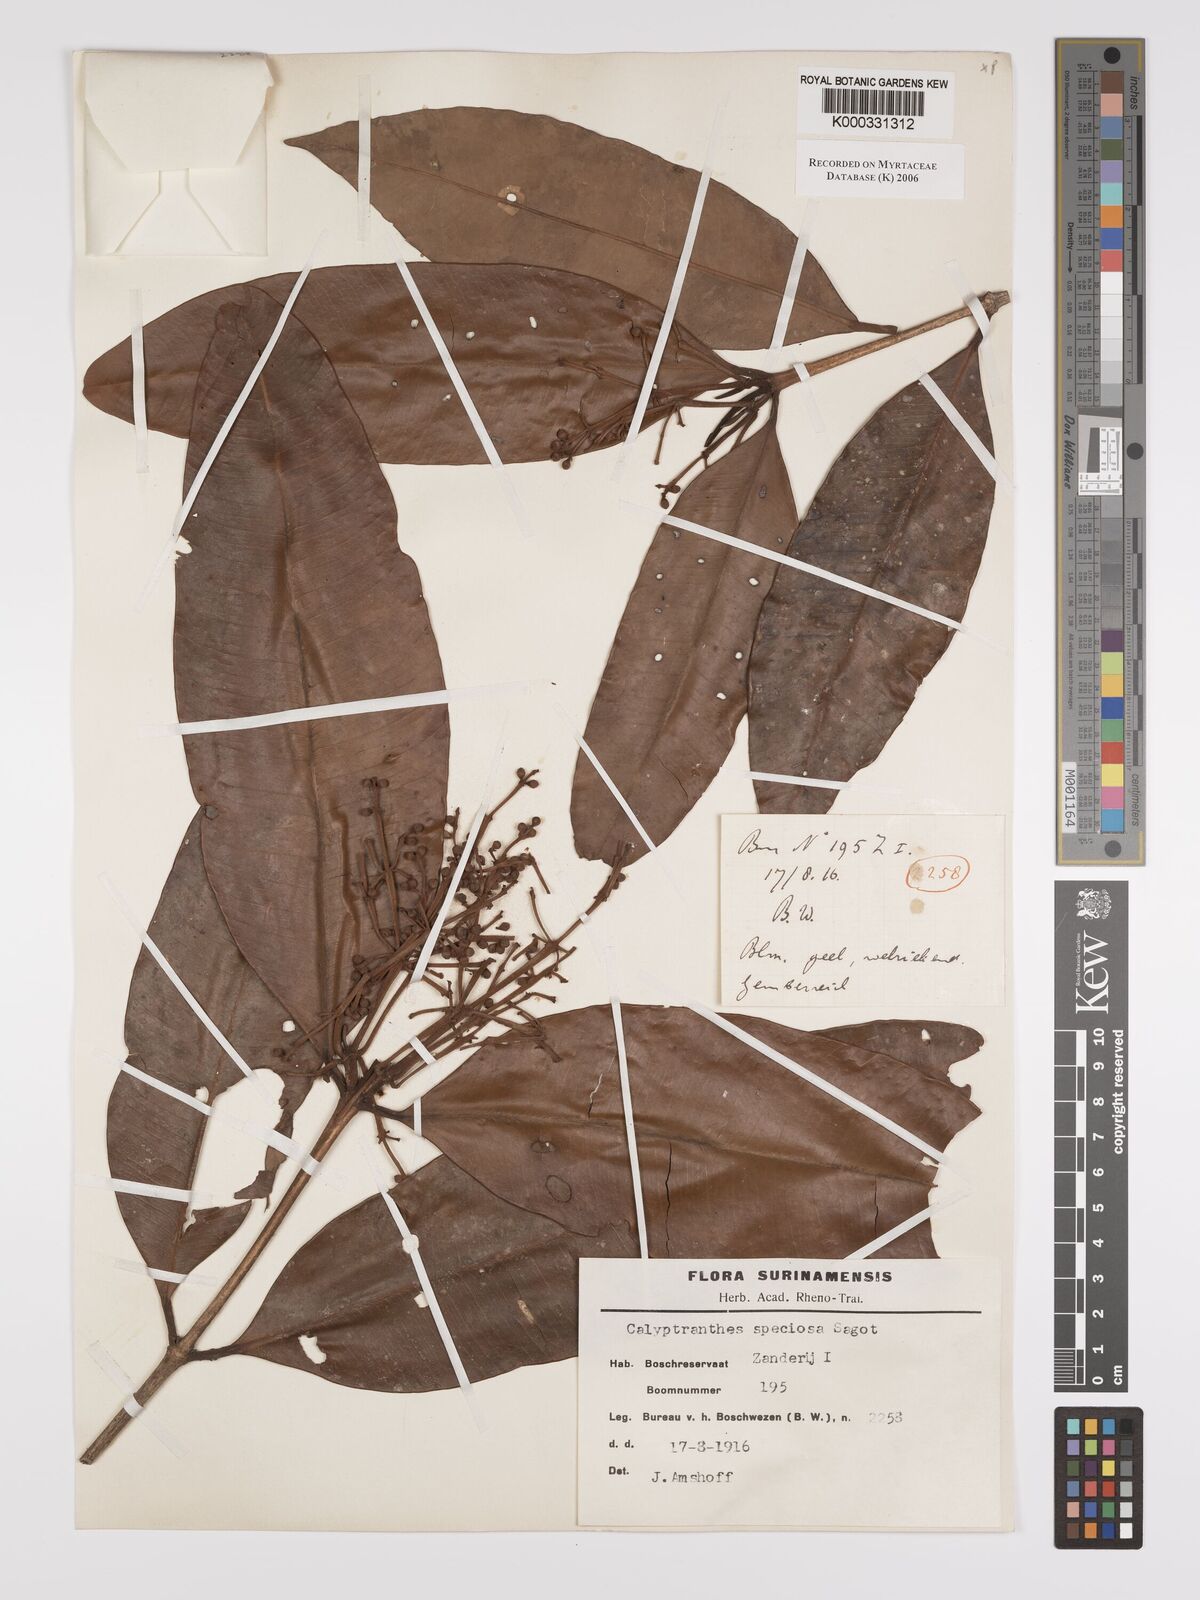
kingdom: Plantae
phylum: Tracheophyta
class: Magnoliopsida
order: Myrtales
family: Myrtaceae
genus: Myrcia
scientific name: Myrcia neospeciosa
